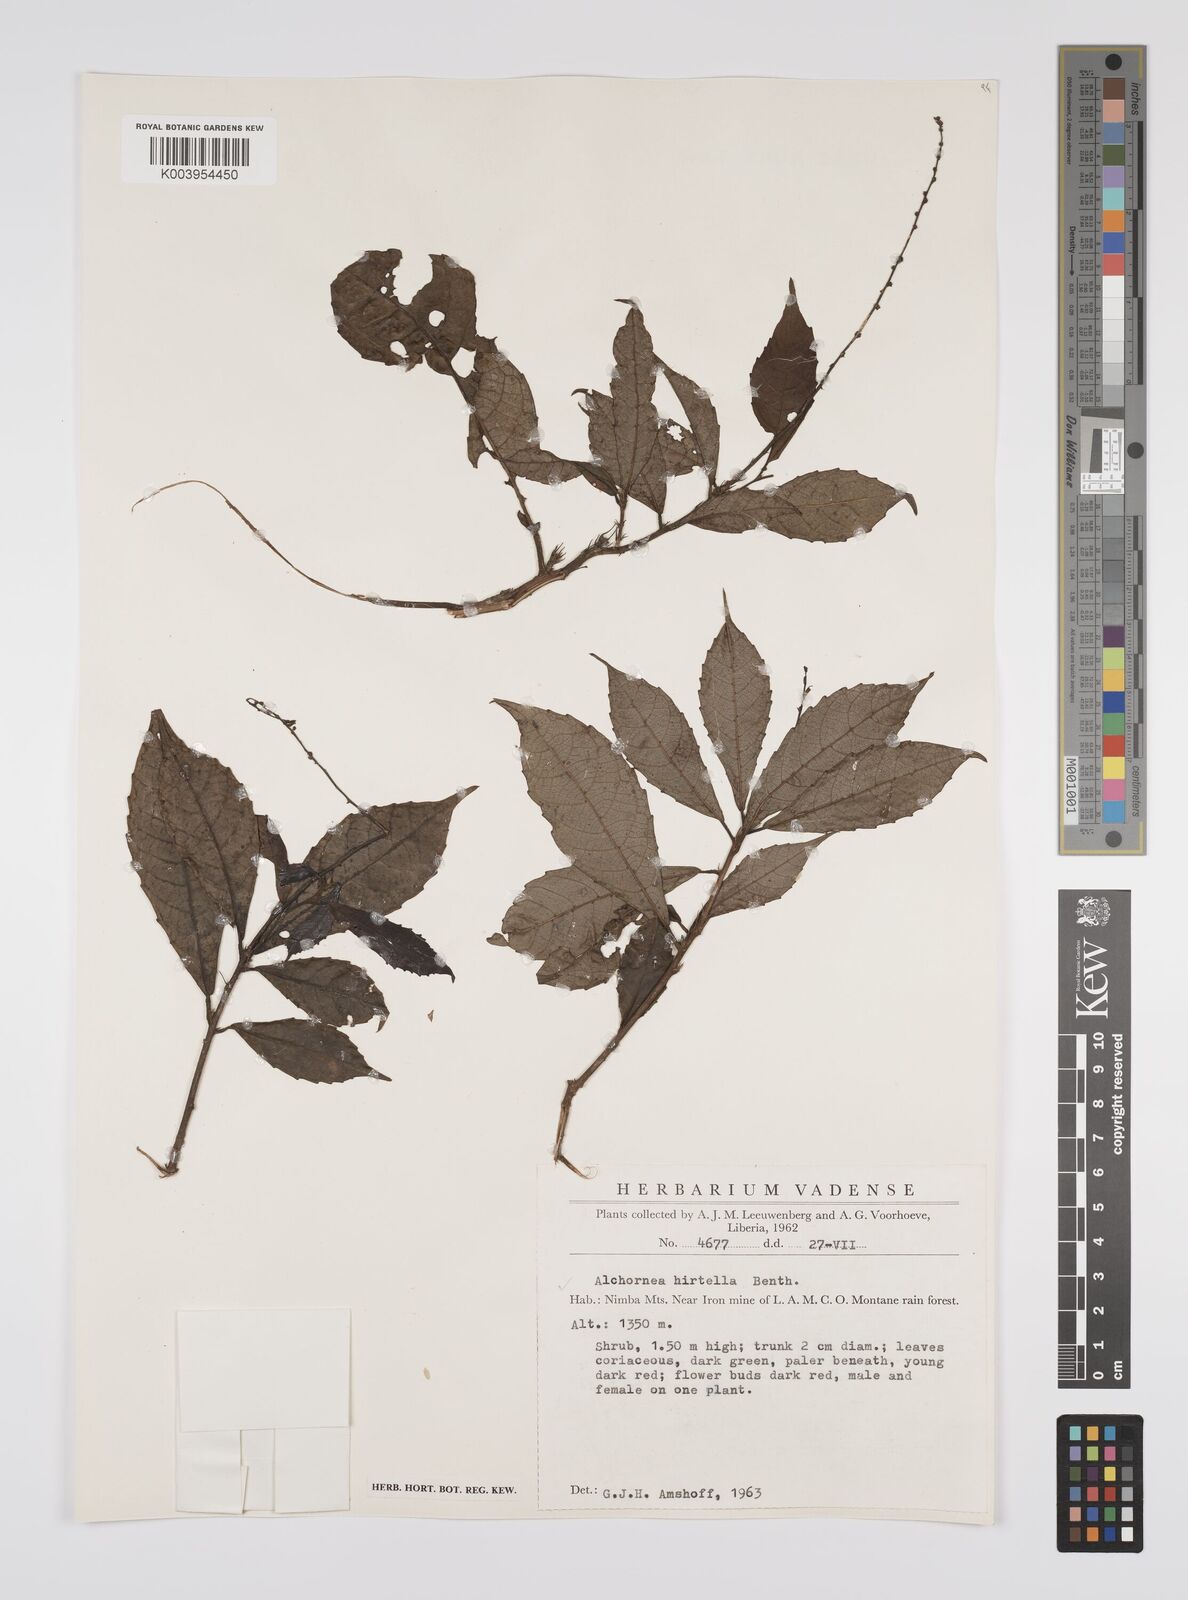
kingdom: Plantae
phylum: Tracheophyta
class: Magnoliopsida
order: Malpighiales
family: Euphorbiaceae
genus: Alchornea
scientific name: Alchornea hirtella
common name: Forest bead-string
